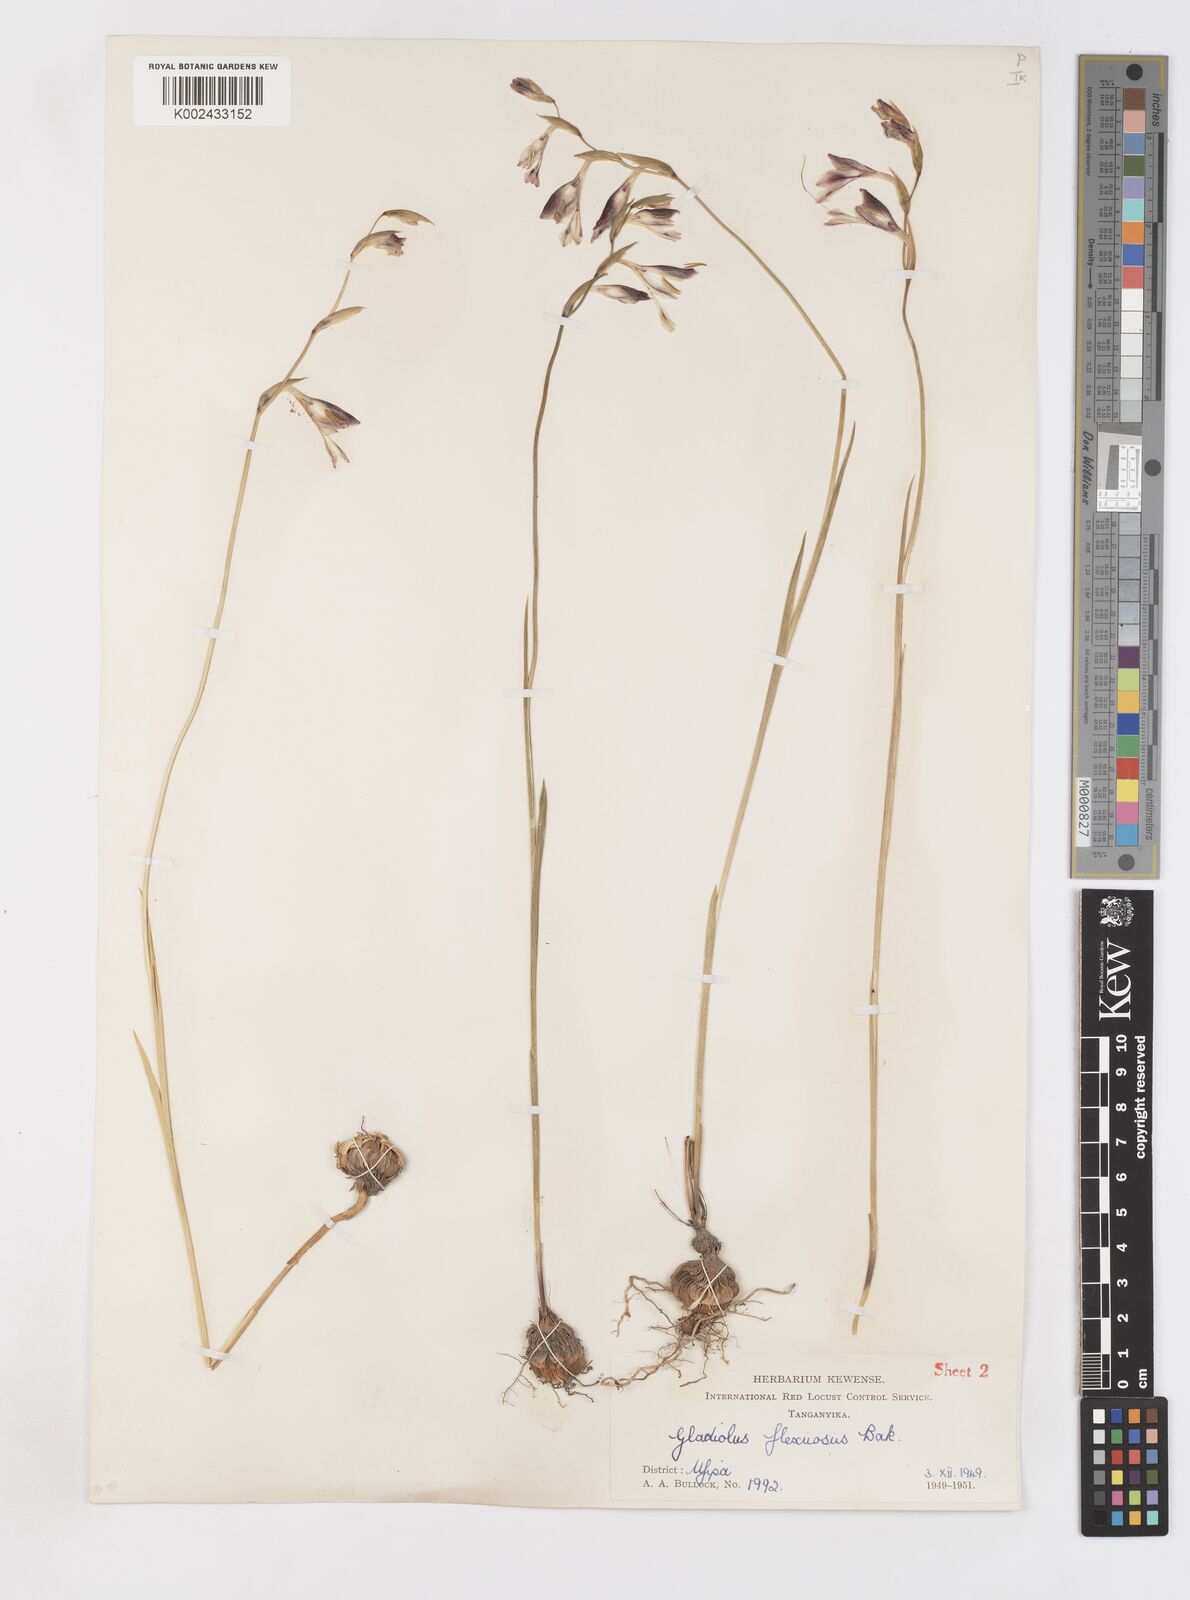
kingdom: Plantae
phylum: Tracheophyta
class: Liliopsida
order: Asparagales
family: Iridaceae
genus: Gladiolus
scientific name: Gladiolus atropurpureus
